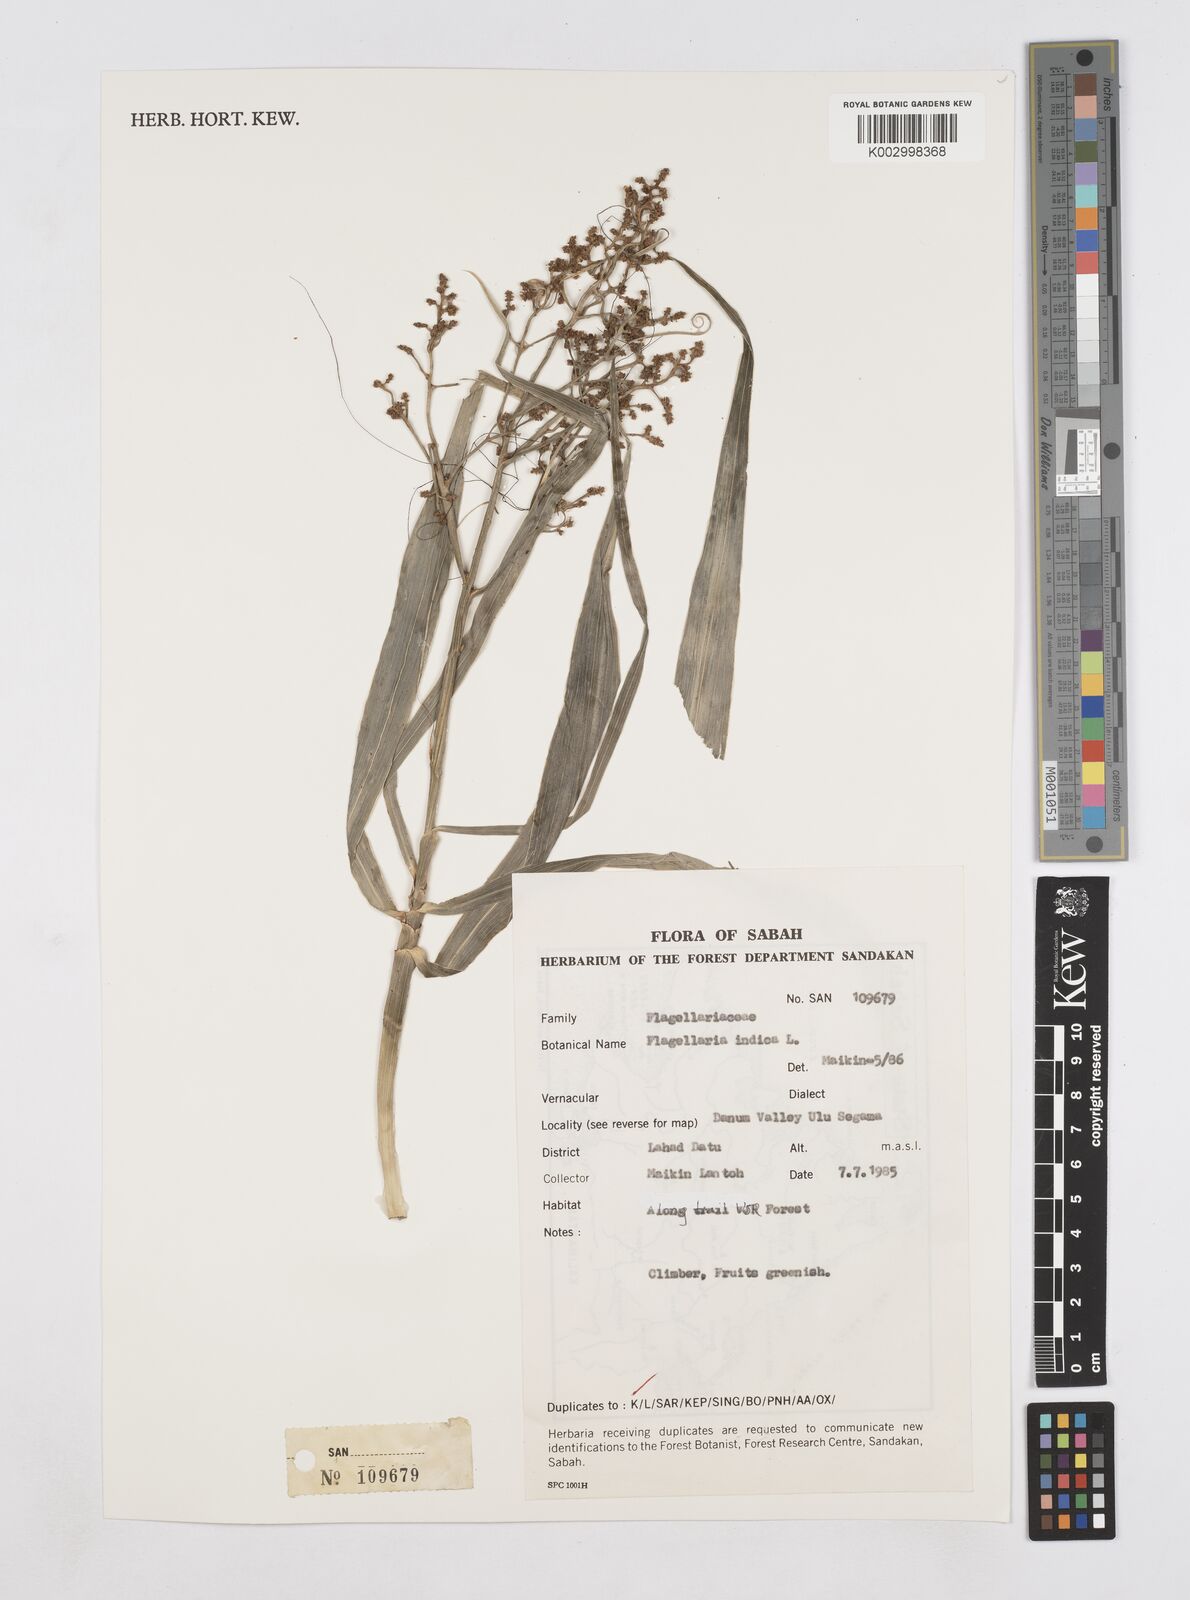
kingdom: Plantae
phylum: Tracheophyta
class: Liliopsida
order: Poales
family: Flagellariaceae
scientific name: Flagellariaceae
